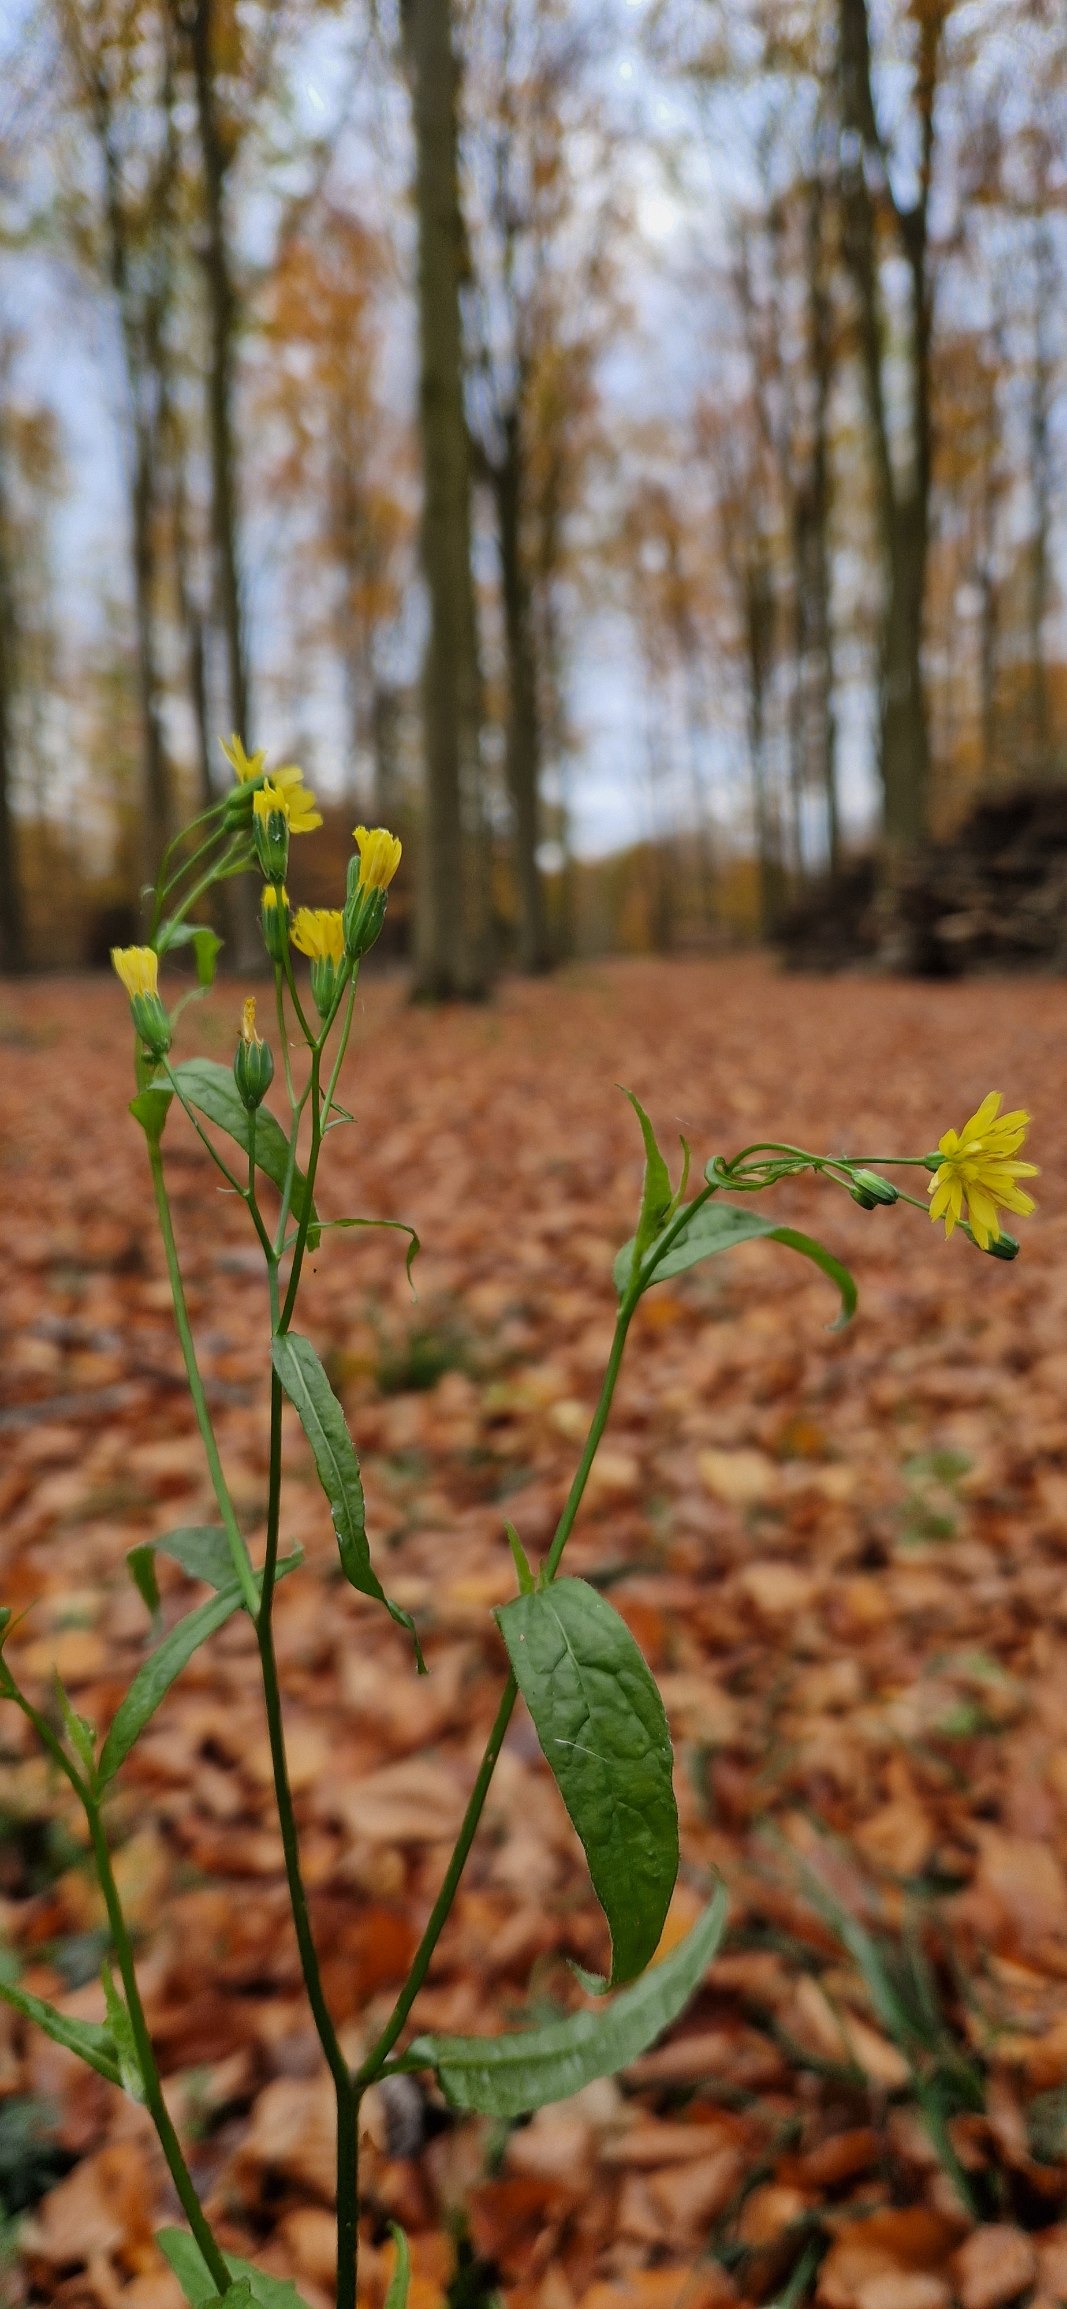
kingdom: Plantae
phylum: Tracheophyta
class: Magnoliopsida
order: Asterales
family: Asteraceae
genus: Lapsana
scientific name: Lapsana communis
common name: Haremad
